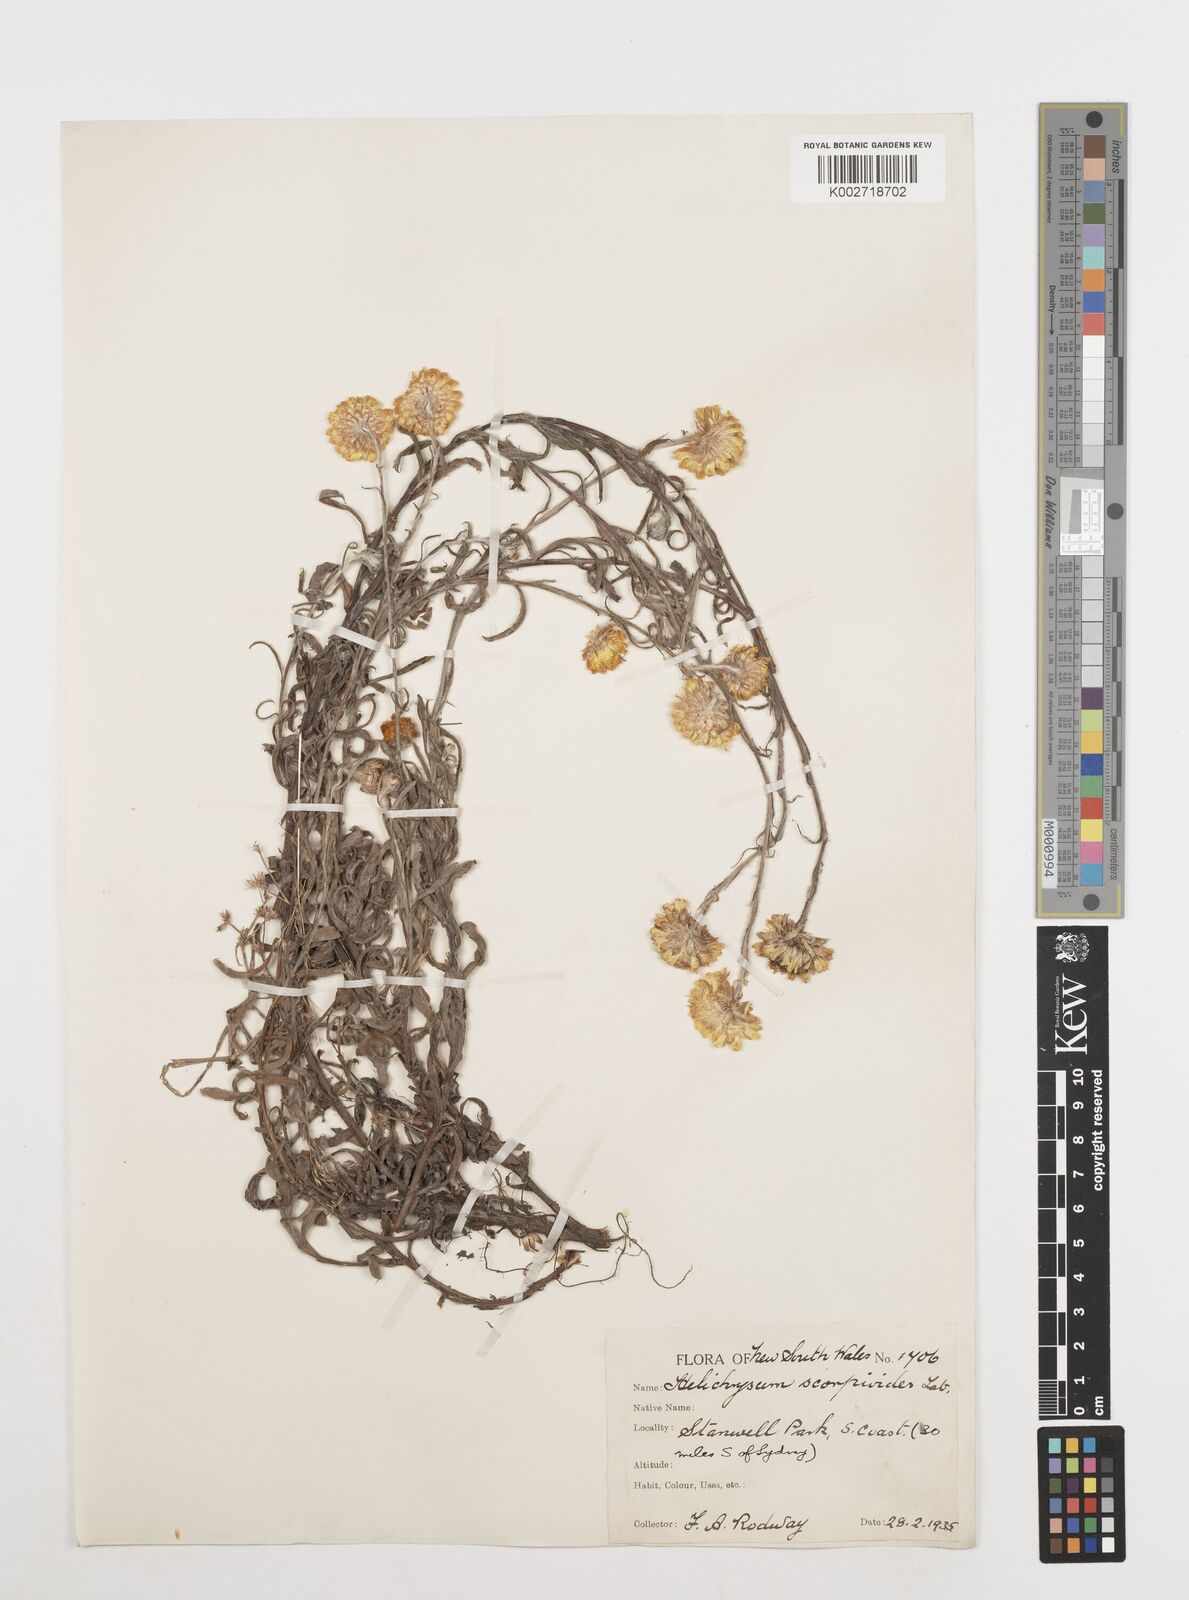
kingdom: Plantae
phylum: Tracheophyta
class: Magnoliopsida
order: Asterales
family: Asteraceae
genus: Coronidium
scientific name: Coronidium scorpioides
